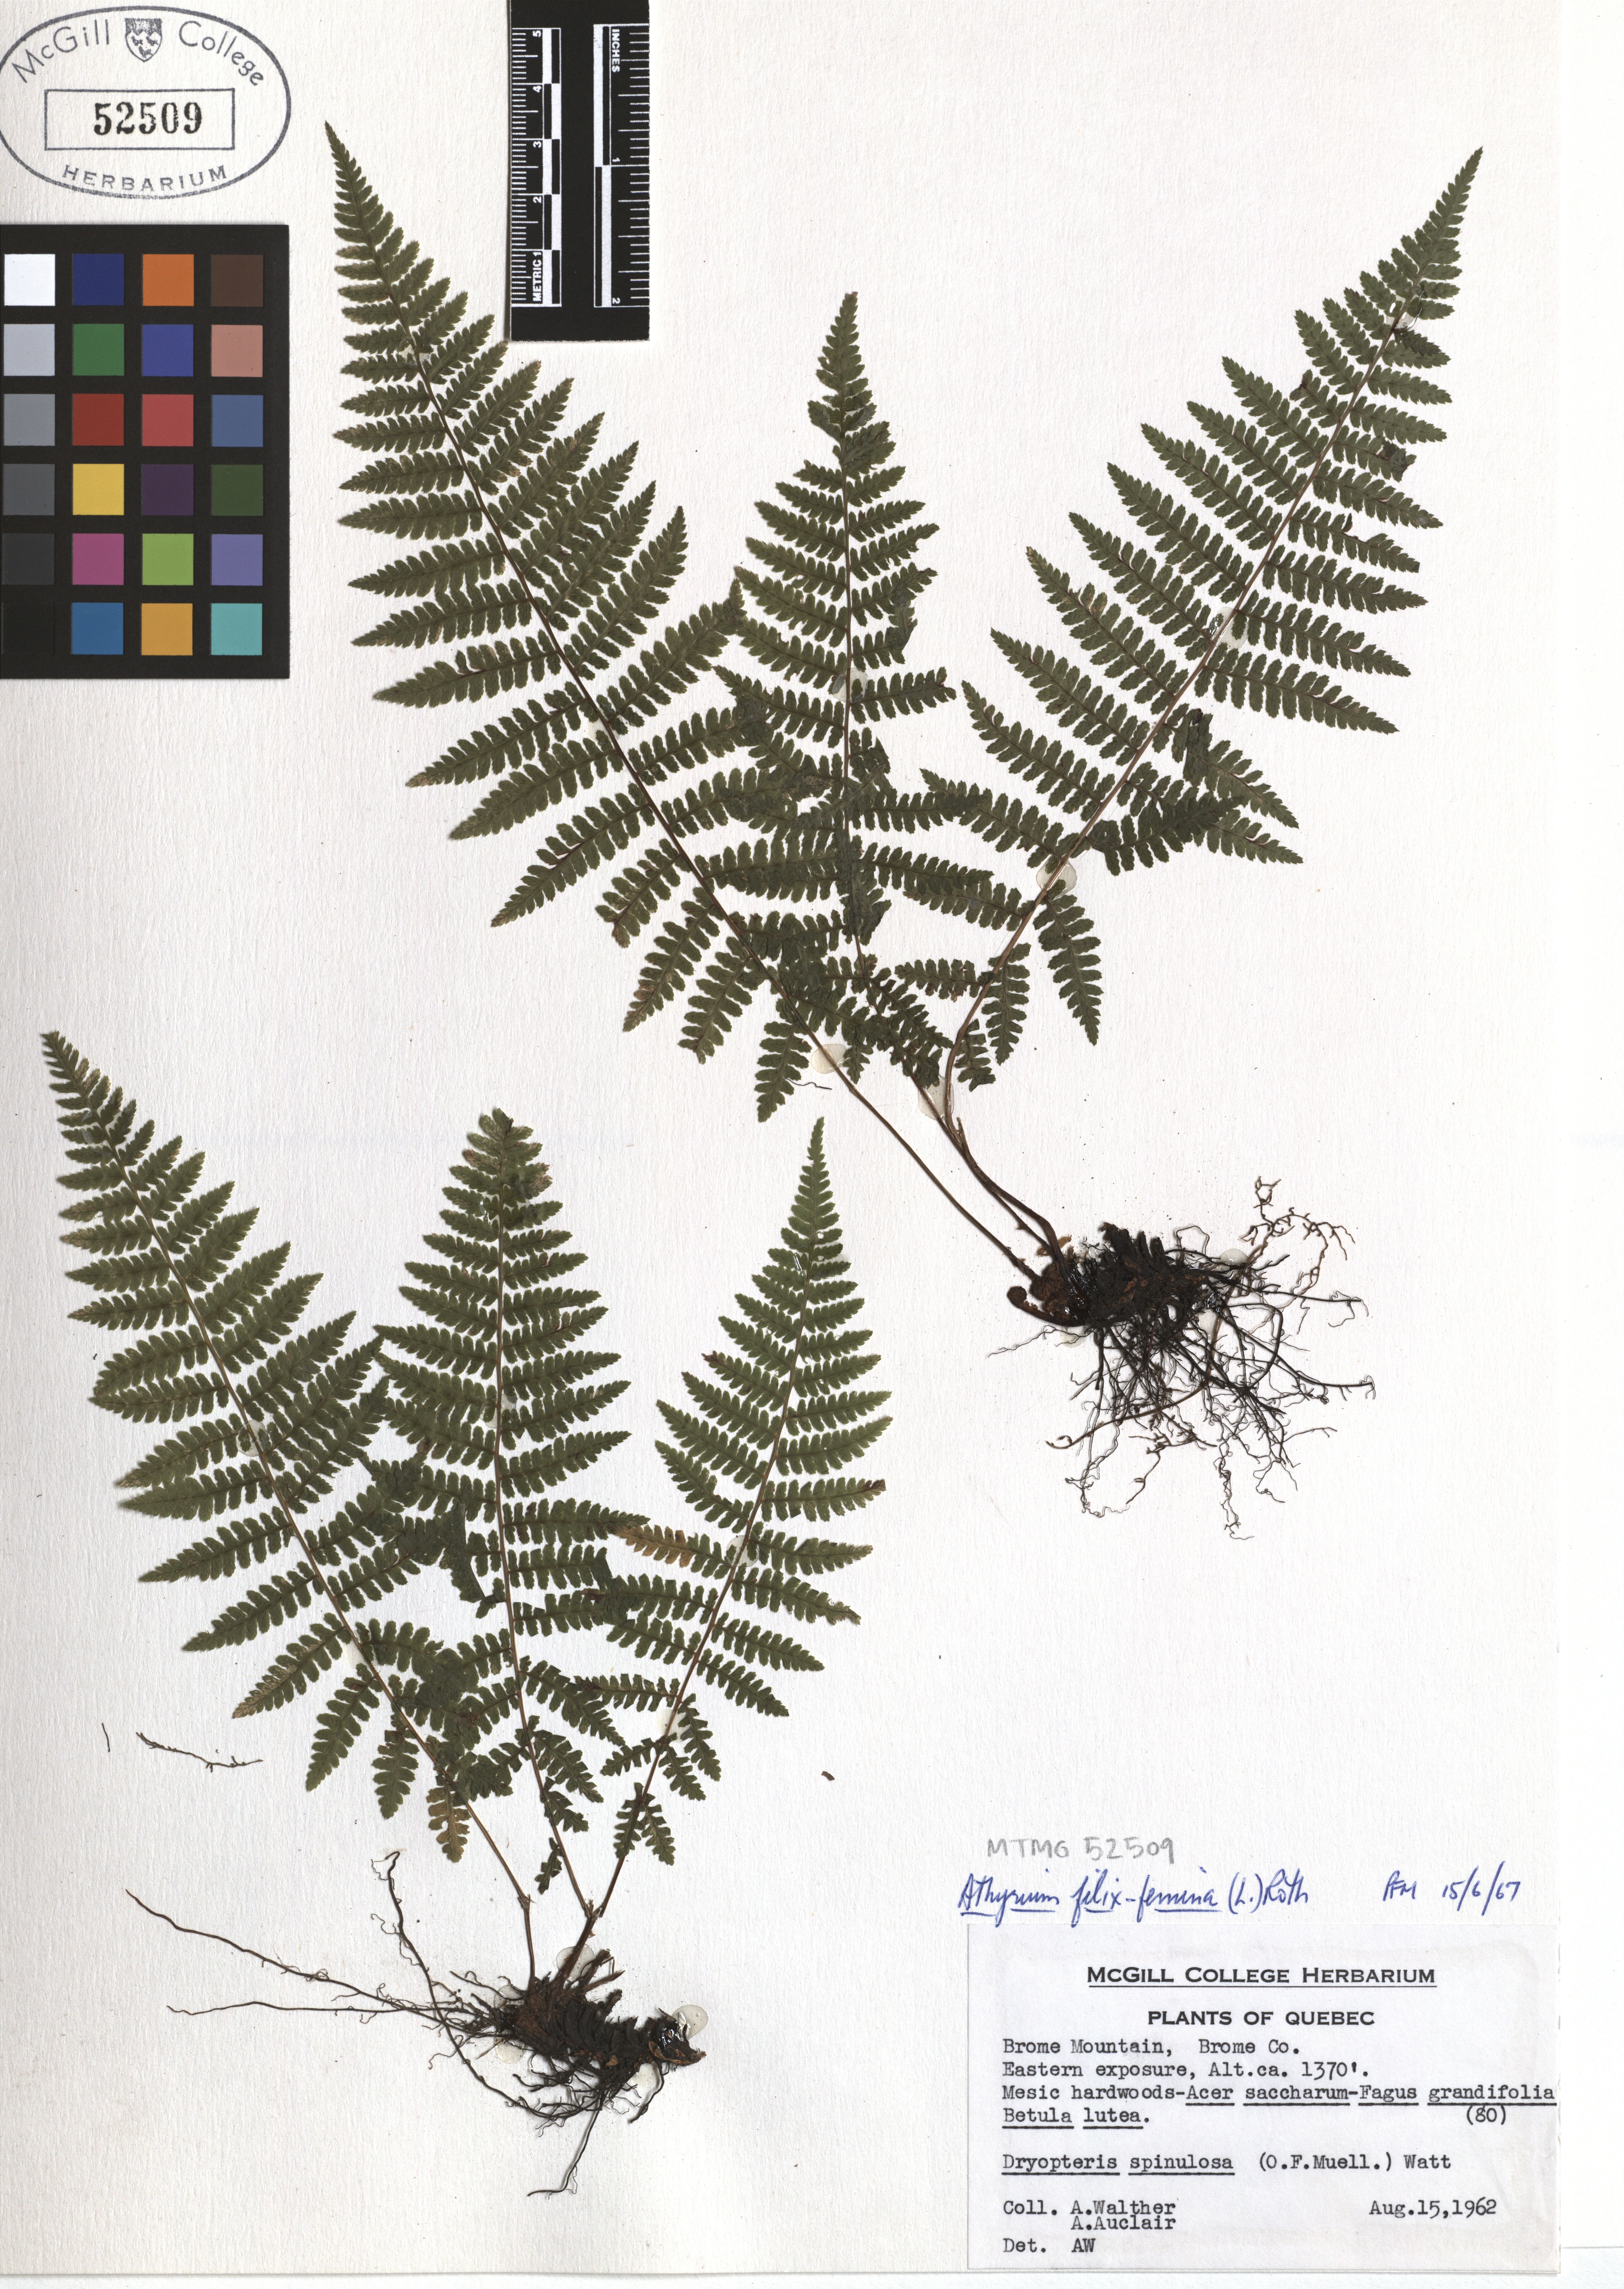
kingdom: Plantae
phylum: Tracheophyta
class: Polypodiopsida
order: Polypodiales
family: Athyriaceae
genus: Athyrium
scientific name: Athyrium filix-femina
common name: Lady fern
